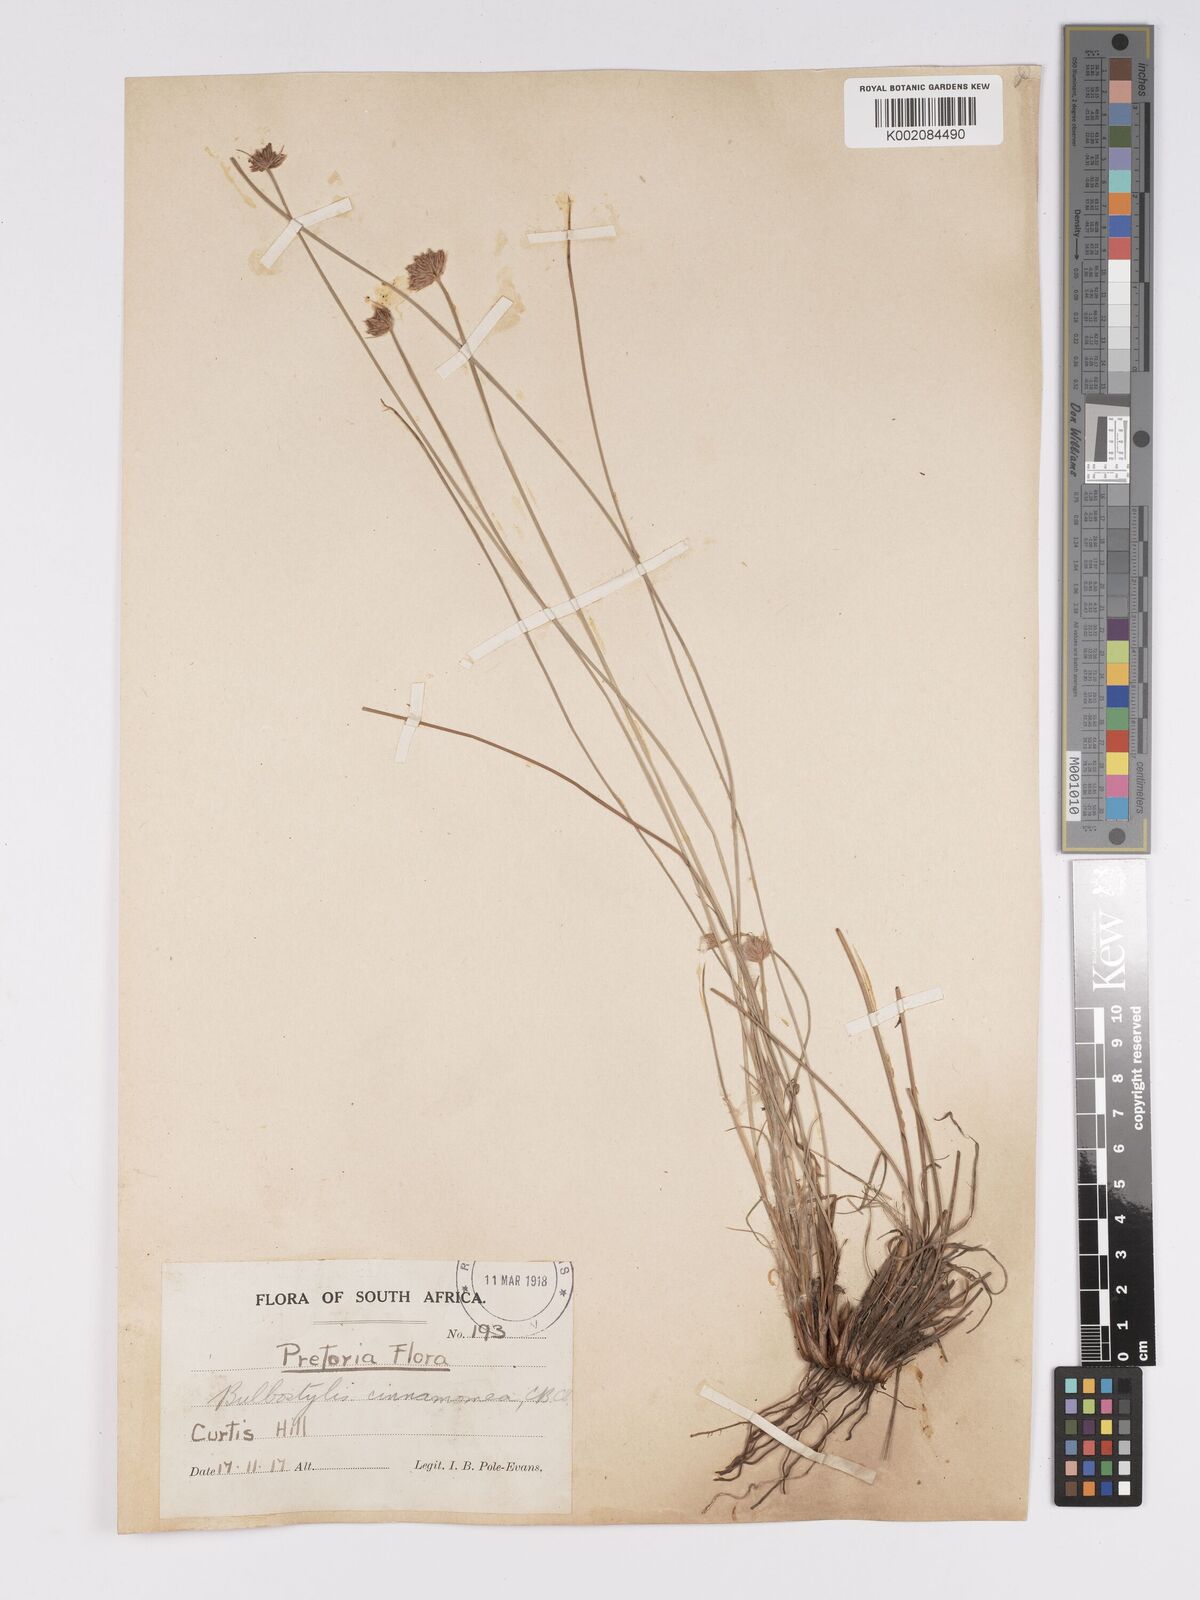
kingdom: Plantae
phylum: Tracheophyta
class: Liliopsida
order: Poales
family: Cyperaceae
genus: Bulbostylis
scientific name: Bulbostylis boeckeleriana
